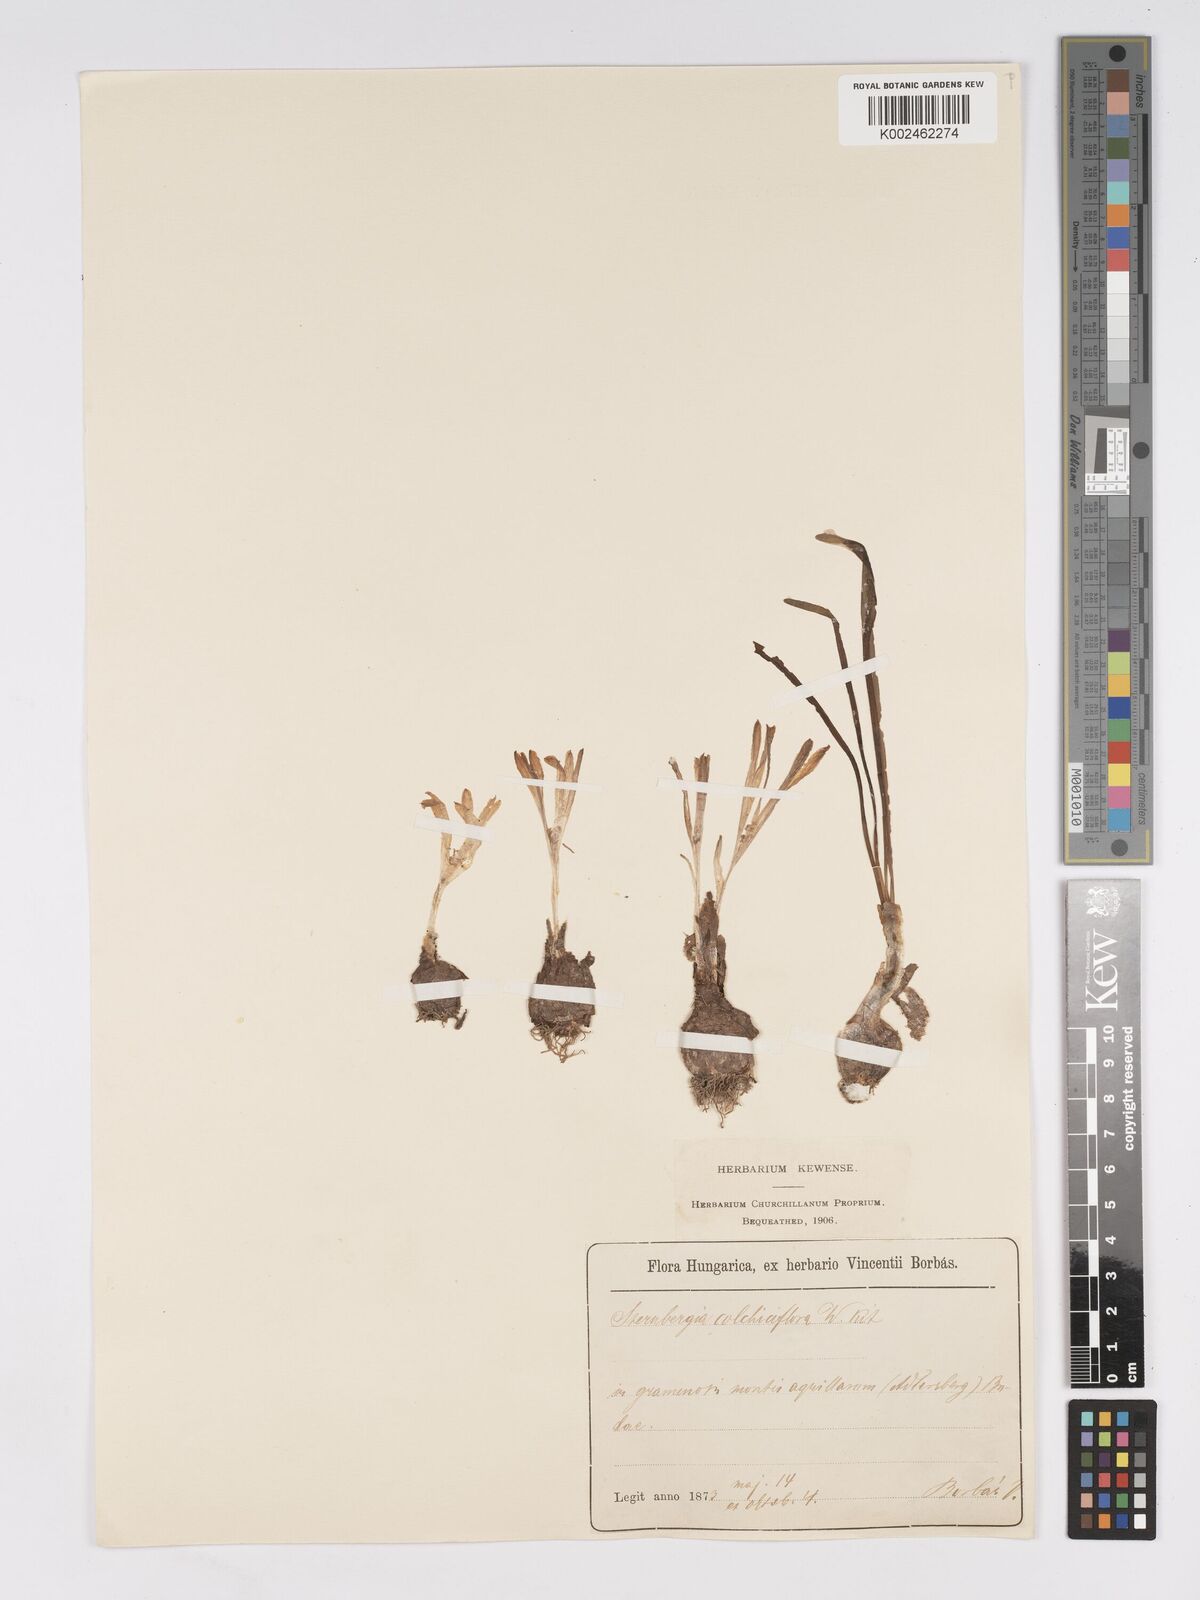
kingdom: Plantae
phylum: Tracheophyta
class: Liliopsida
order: Asparagales
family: Amaryllidaceae
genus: Sternbergia
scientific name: Sternbergia colchiciflora
